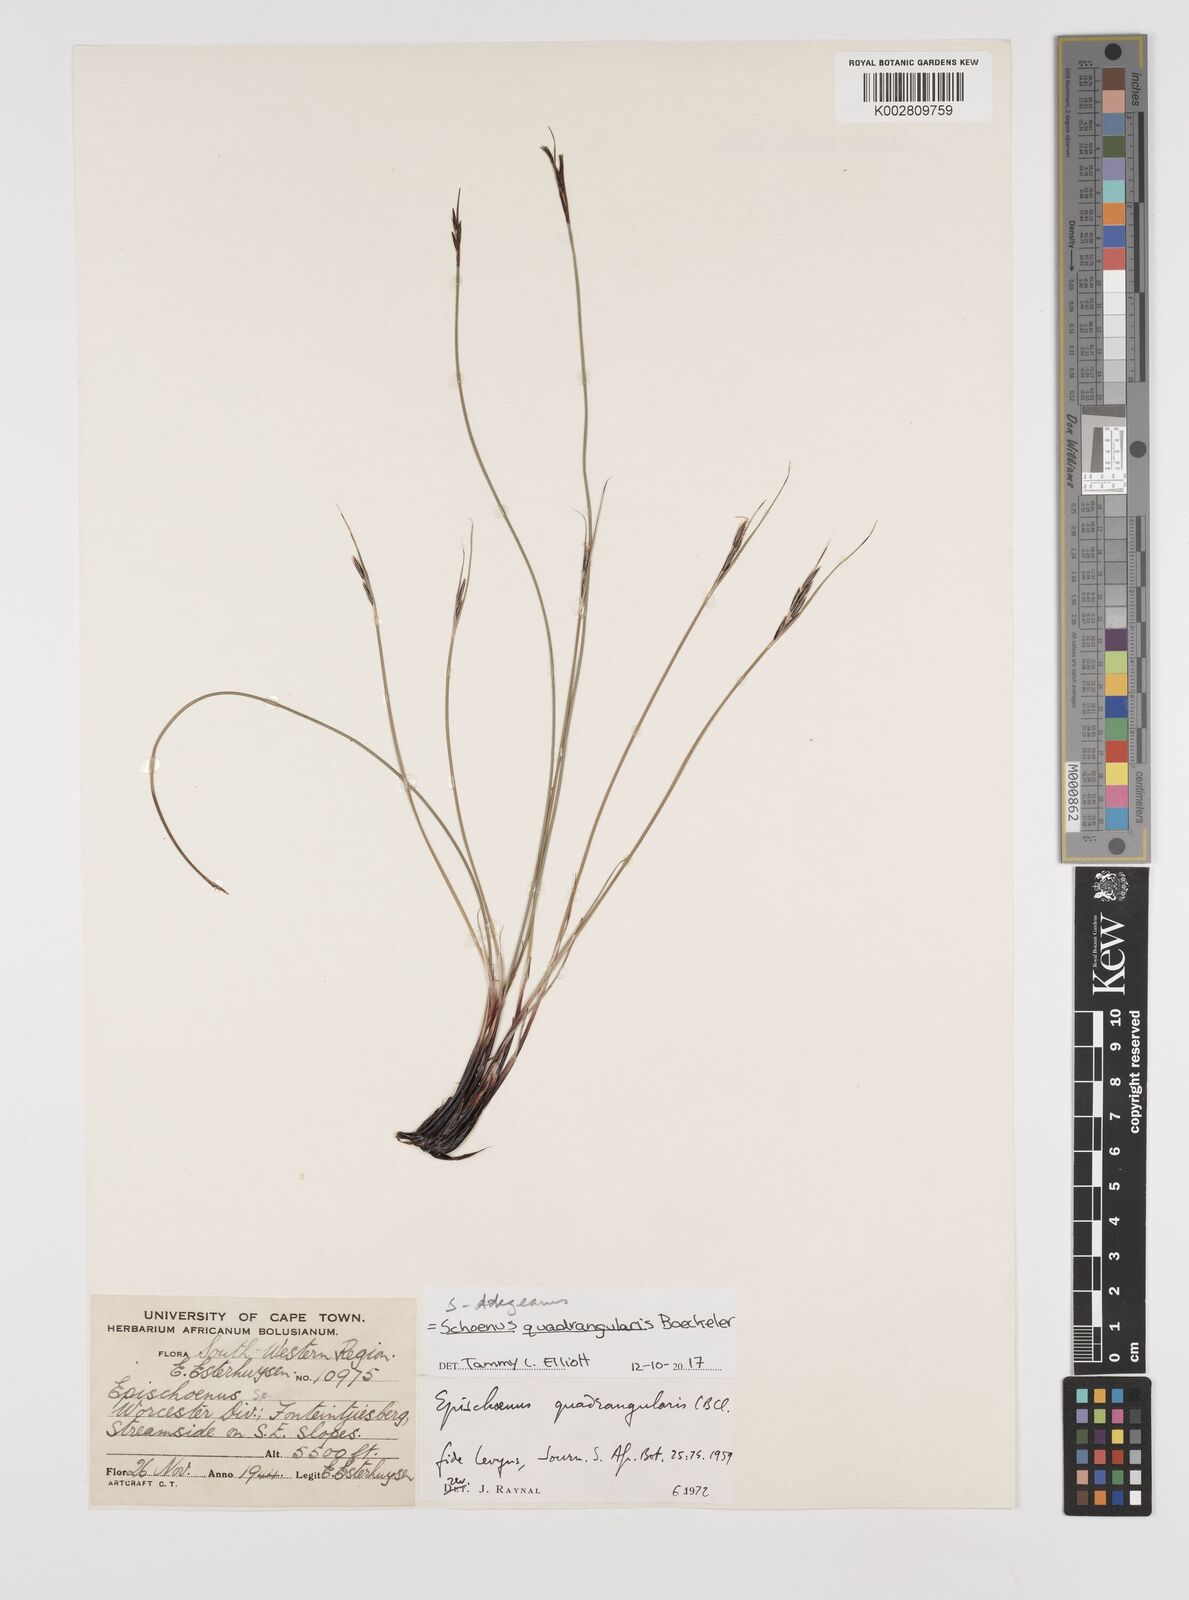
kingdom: Plantae
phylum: Tracheophyta
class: Liliopsida
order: Poales
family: Cyperaceae
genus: Schoenus
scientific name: Schoenus dregeanus
